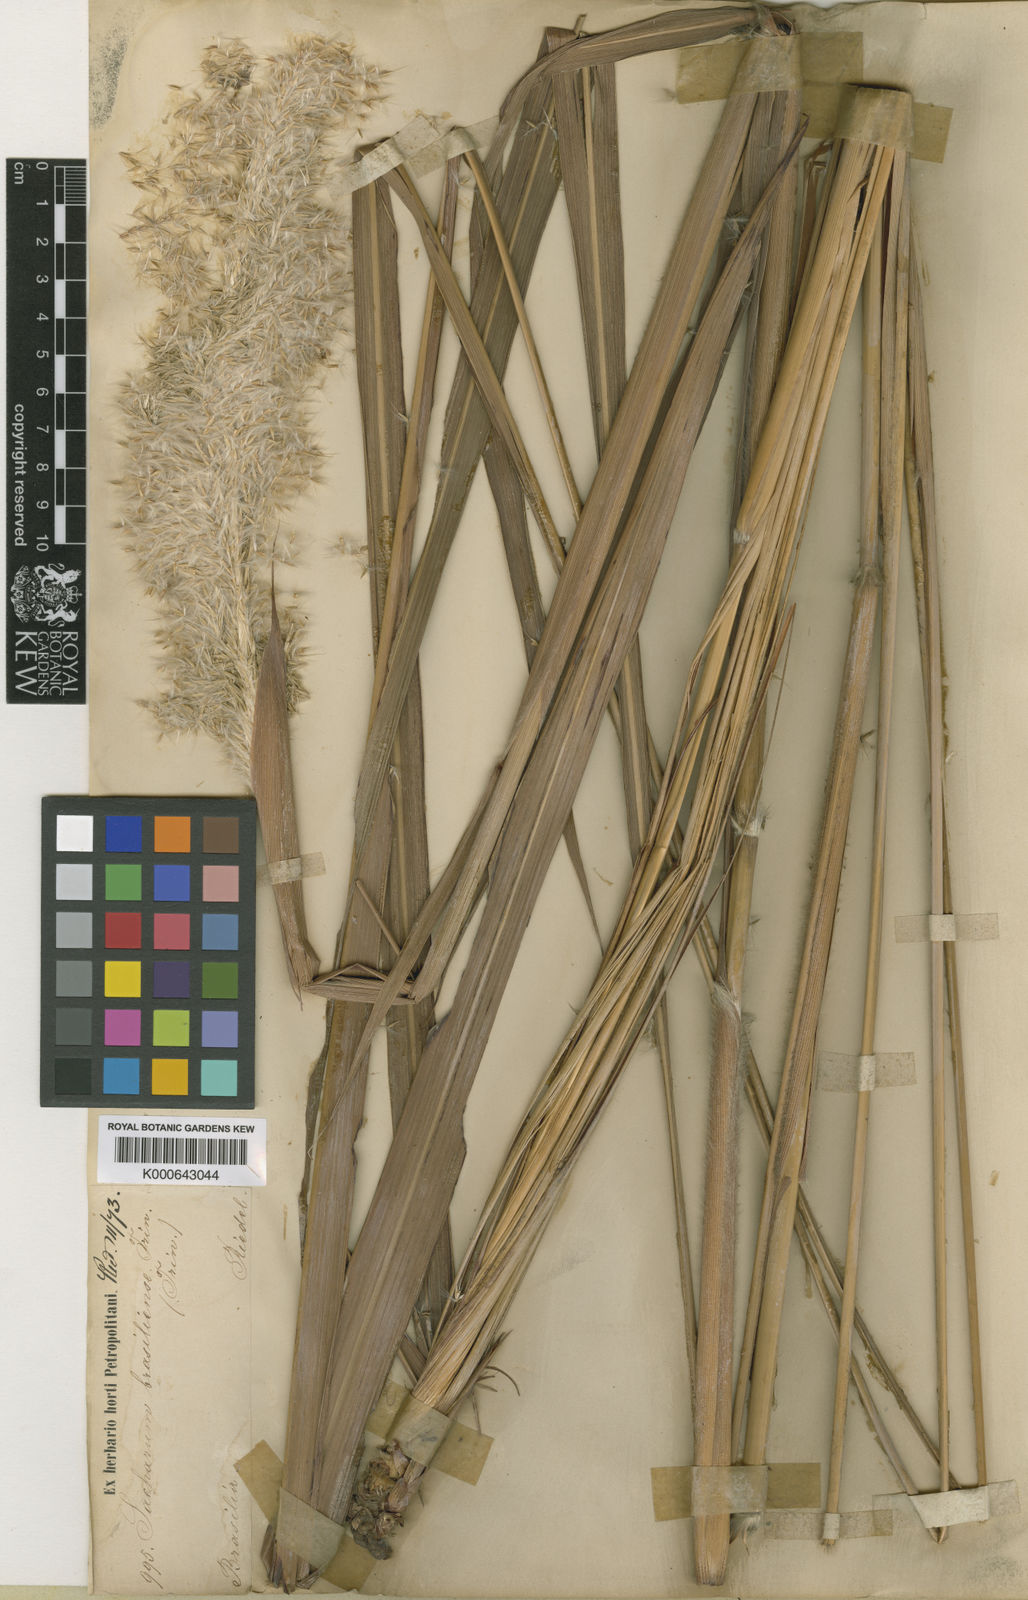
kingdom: Plantae
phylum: Tracheophyta
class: Liliopsida
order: Poales
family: Poaceae
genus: Erianthus
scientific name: Erianthus asper
